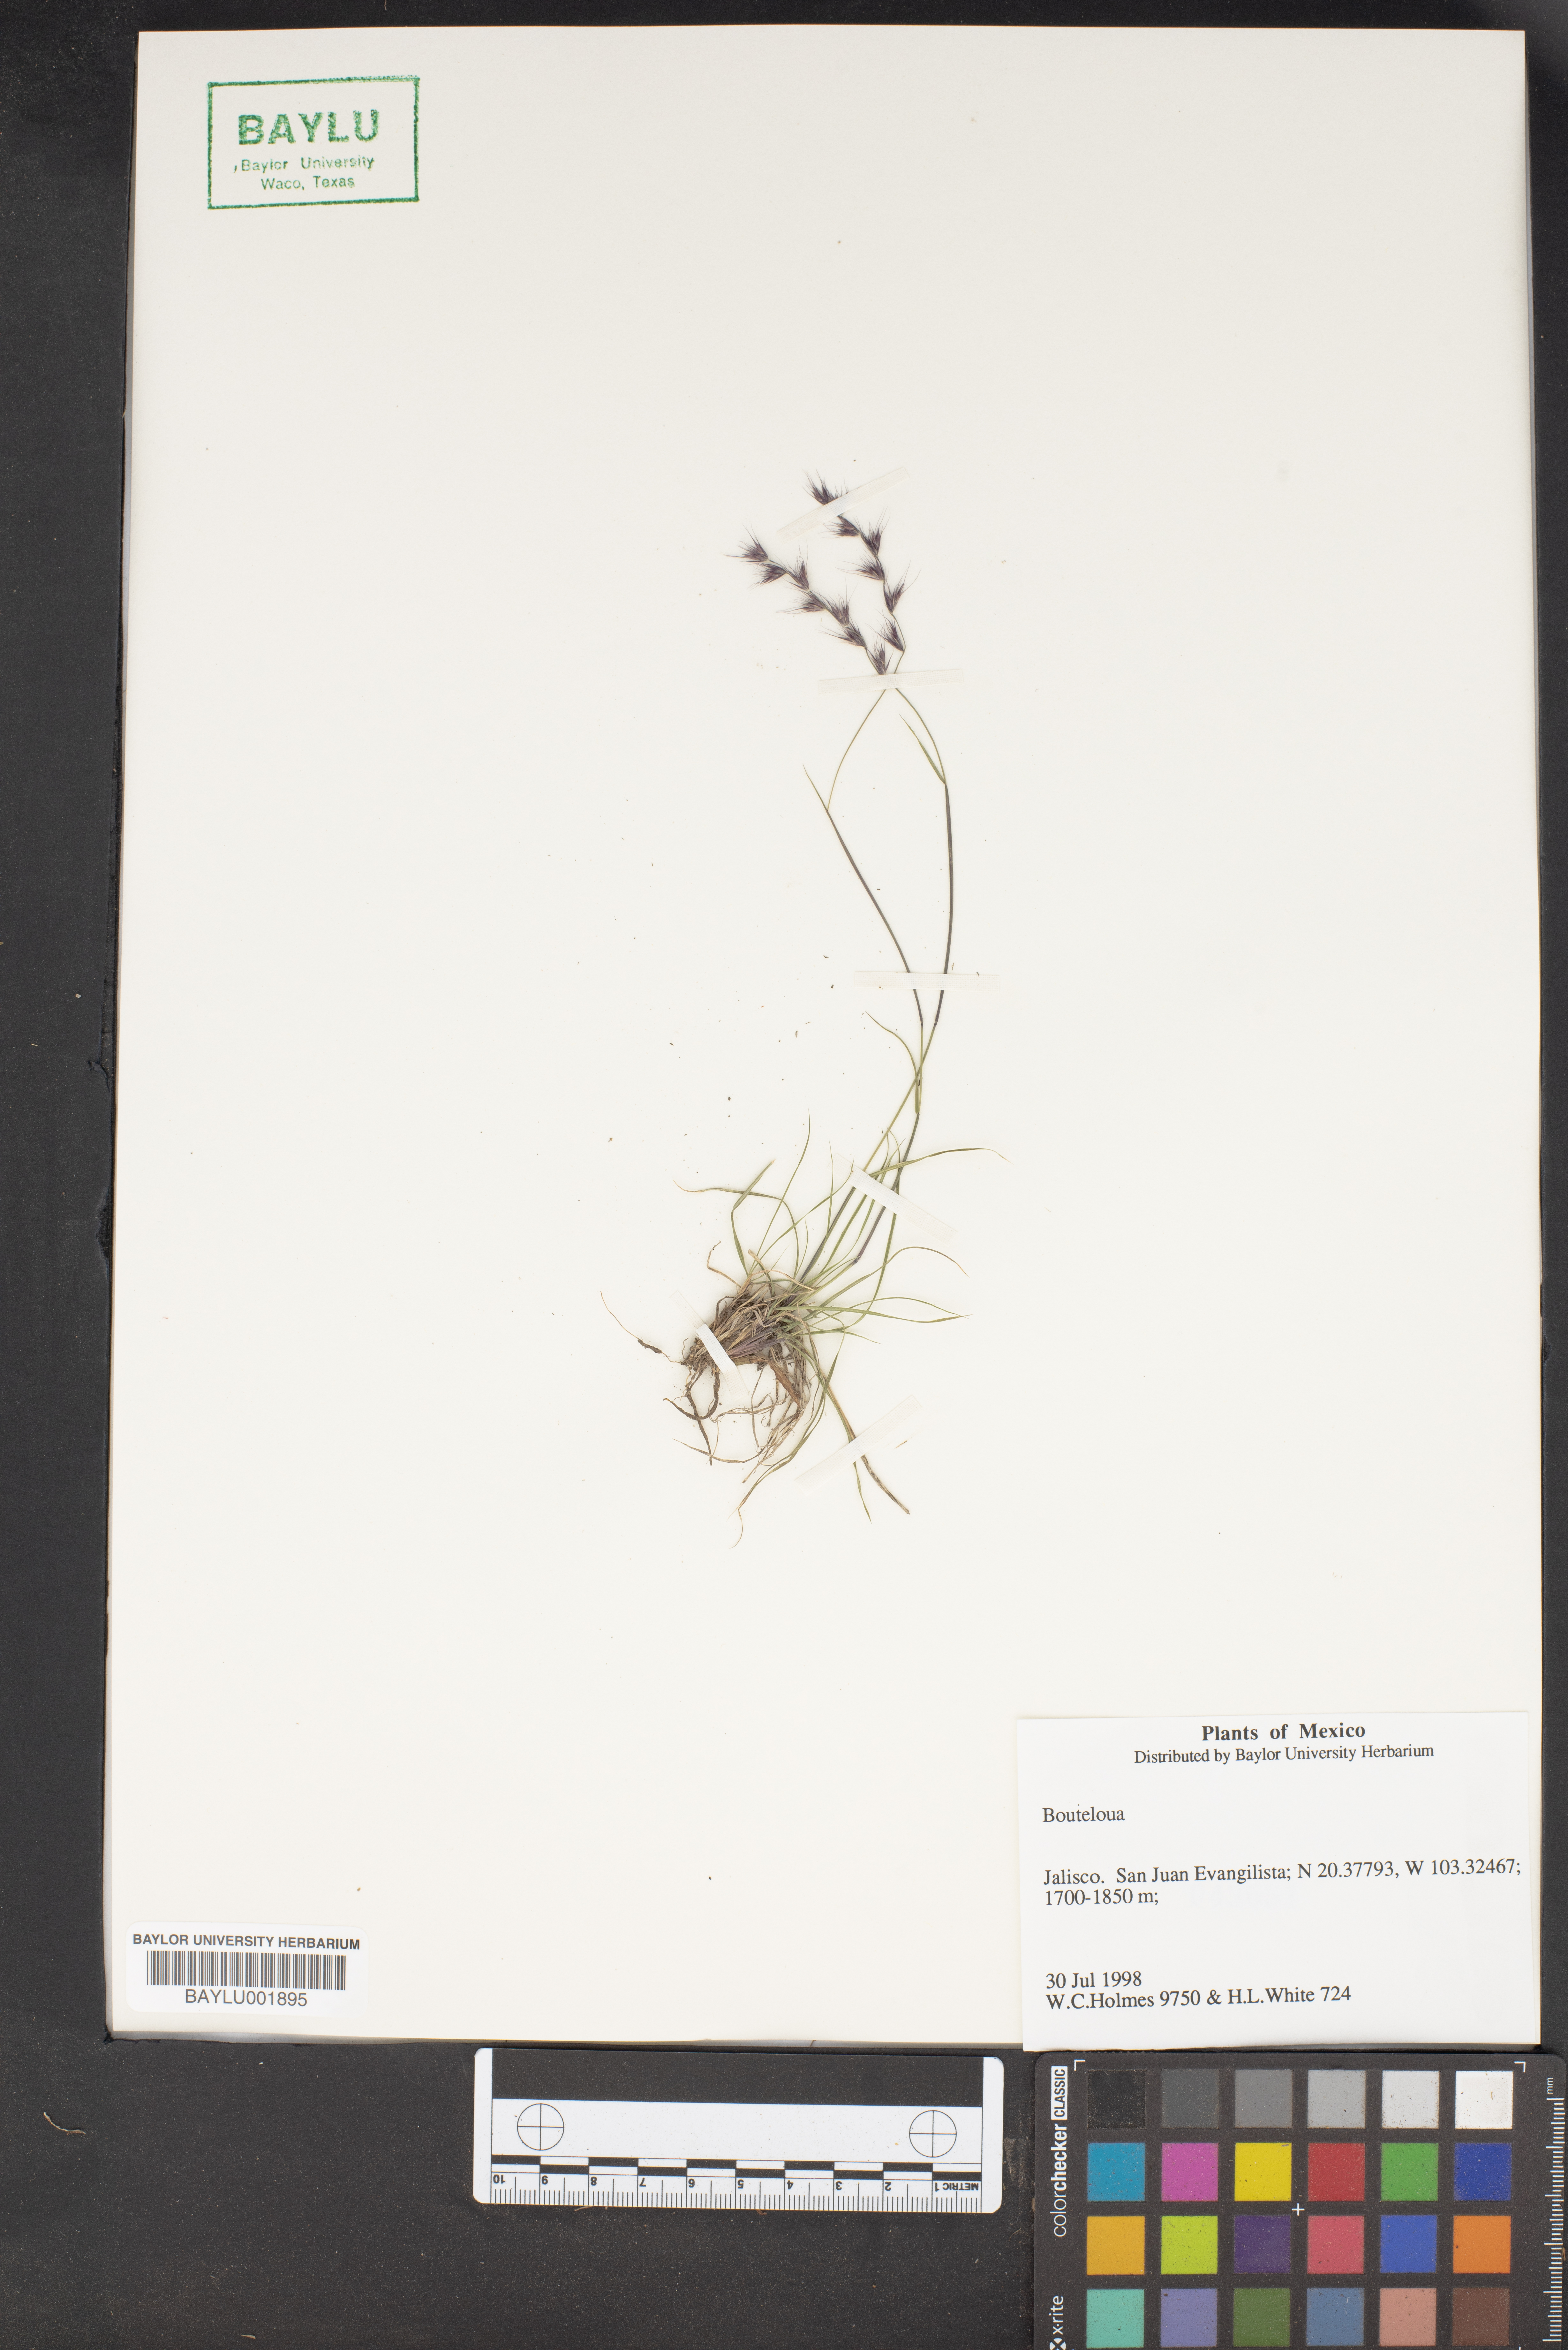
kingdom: Plantae
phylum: Tracheophyta
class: Liliopsida
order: Poales
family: Poaceae
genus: Bouteloua
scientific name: Bouteloua
